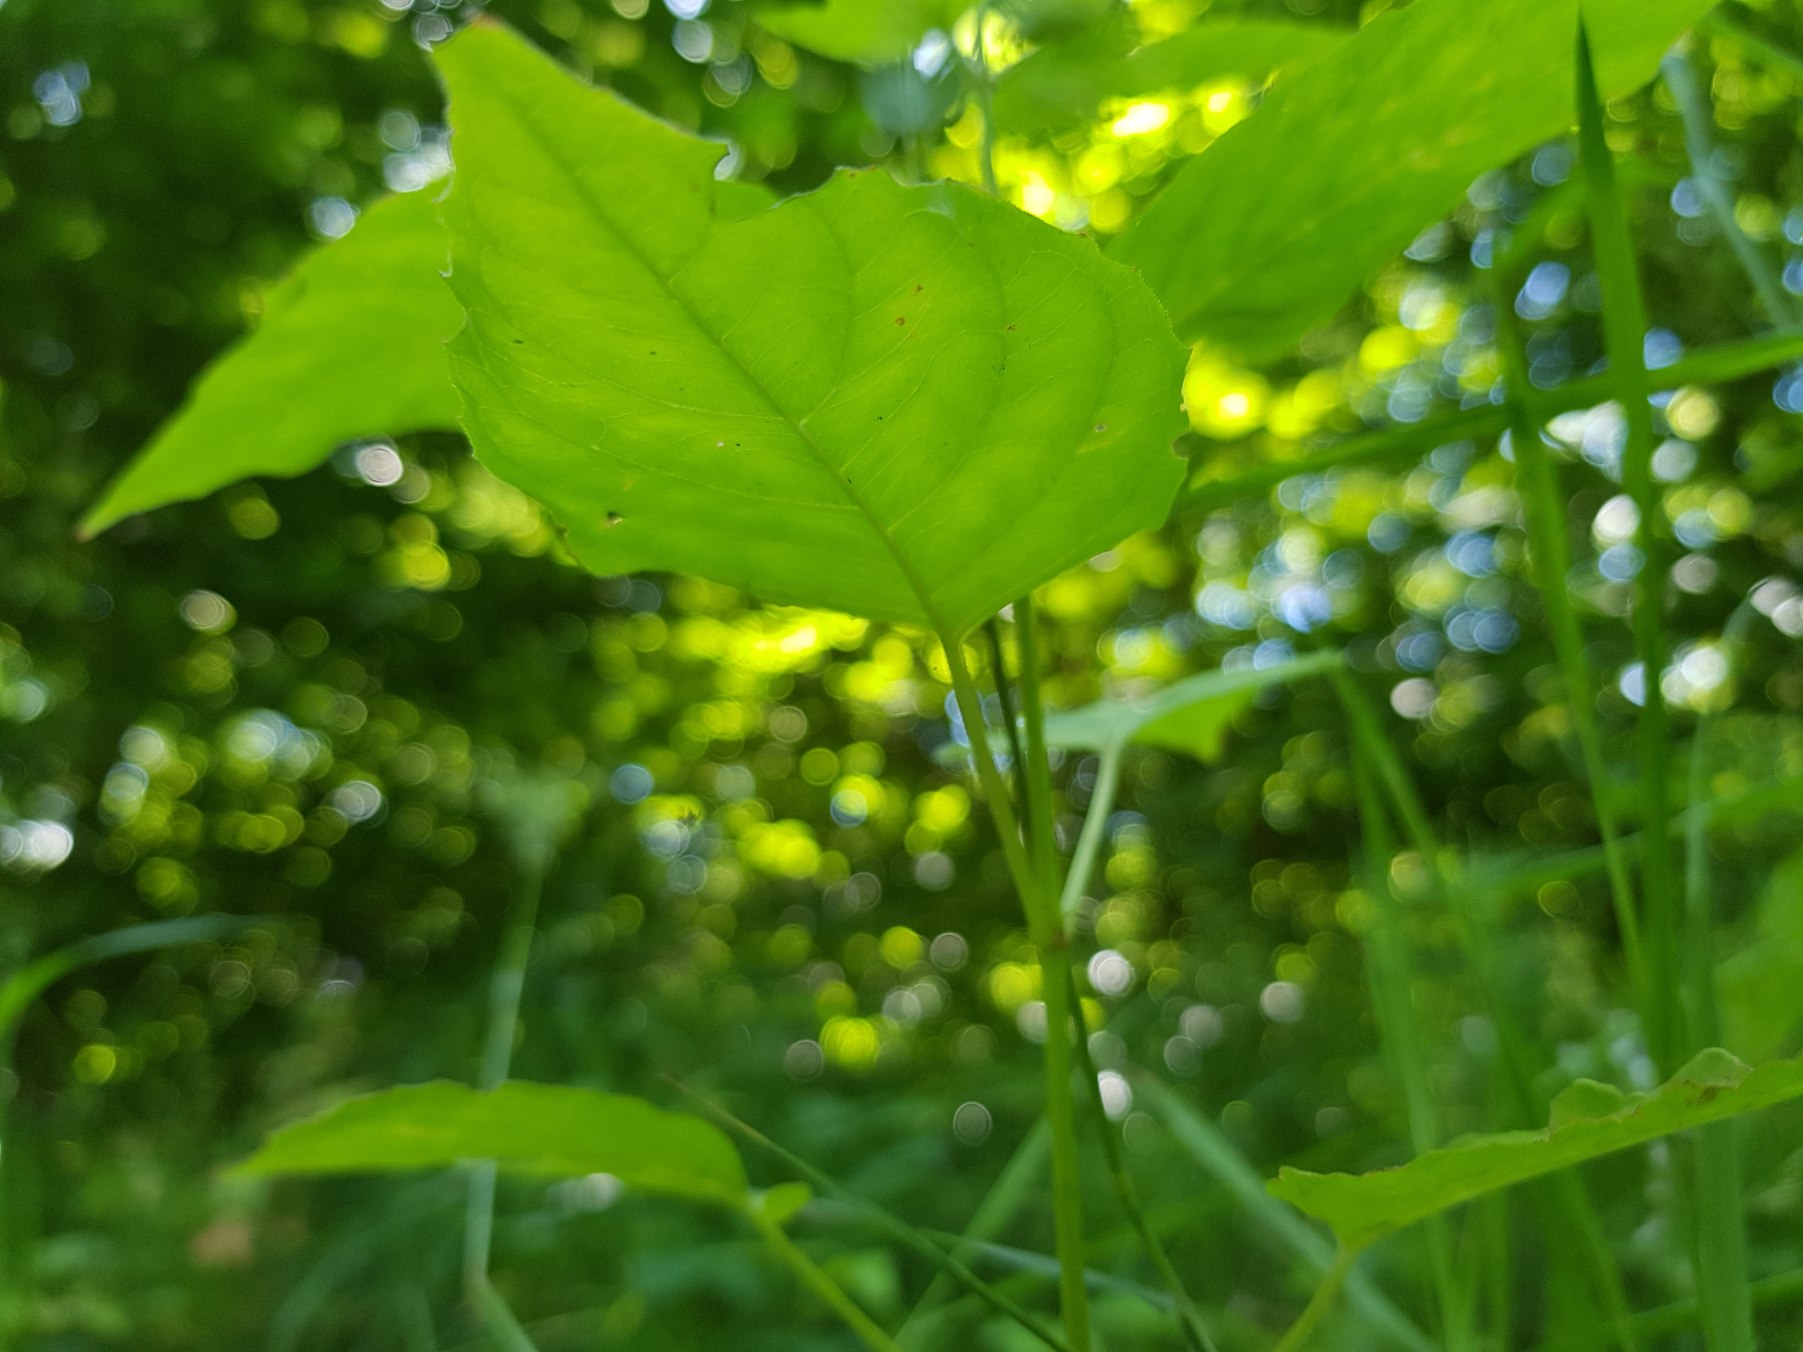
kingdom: Plantae
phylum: Tracheophyta
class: Magnoliopsida
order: Myrtales
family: Onagraceae
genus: Circaea
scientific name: Circaea lutetiana
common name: Dunet steffensurt
